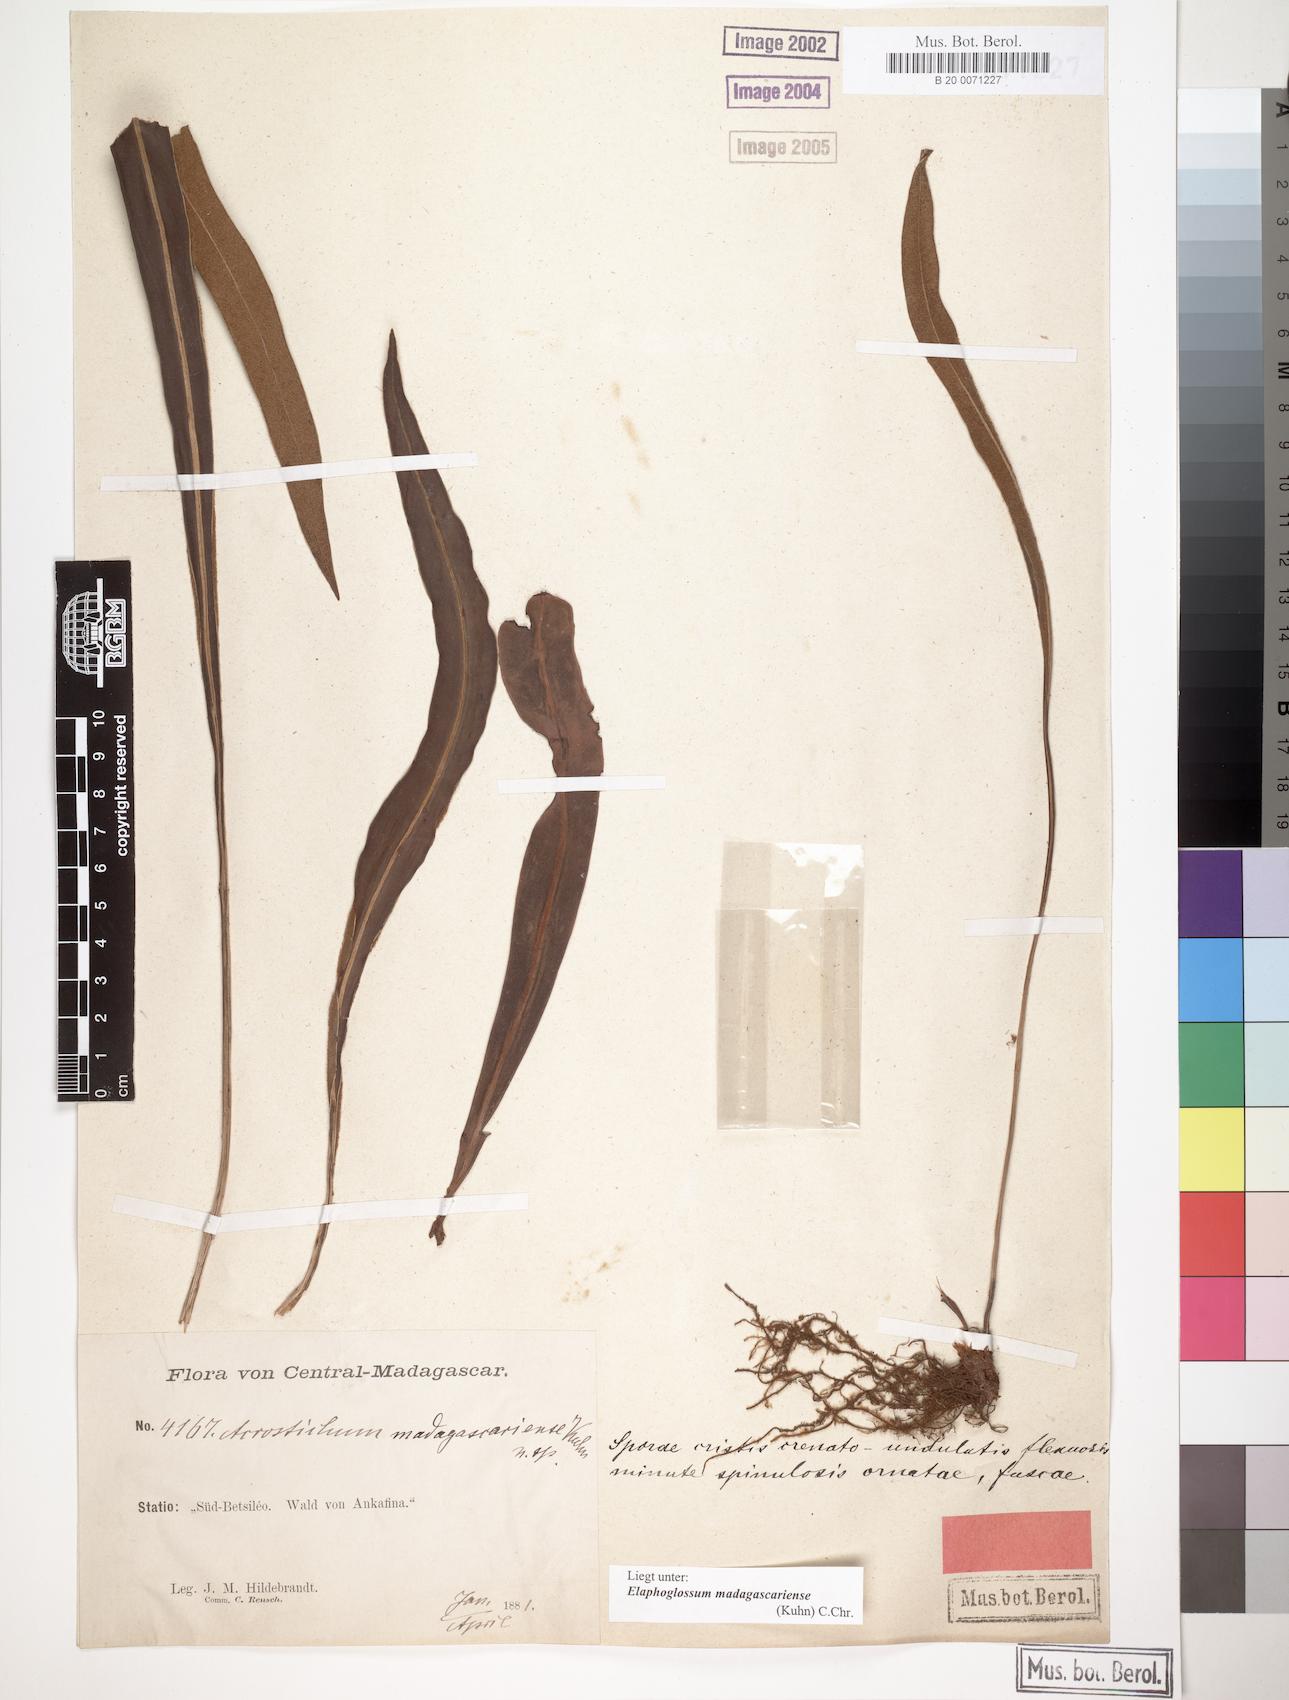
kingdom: Plantae
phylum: Tracheophyta
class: Polypodiopsida
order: Polypodiales
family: Dryopteridaceae
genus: Elaphoglossum
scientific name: Elaphoglossum subsessile
